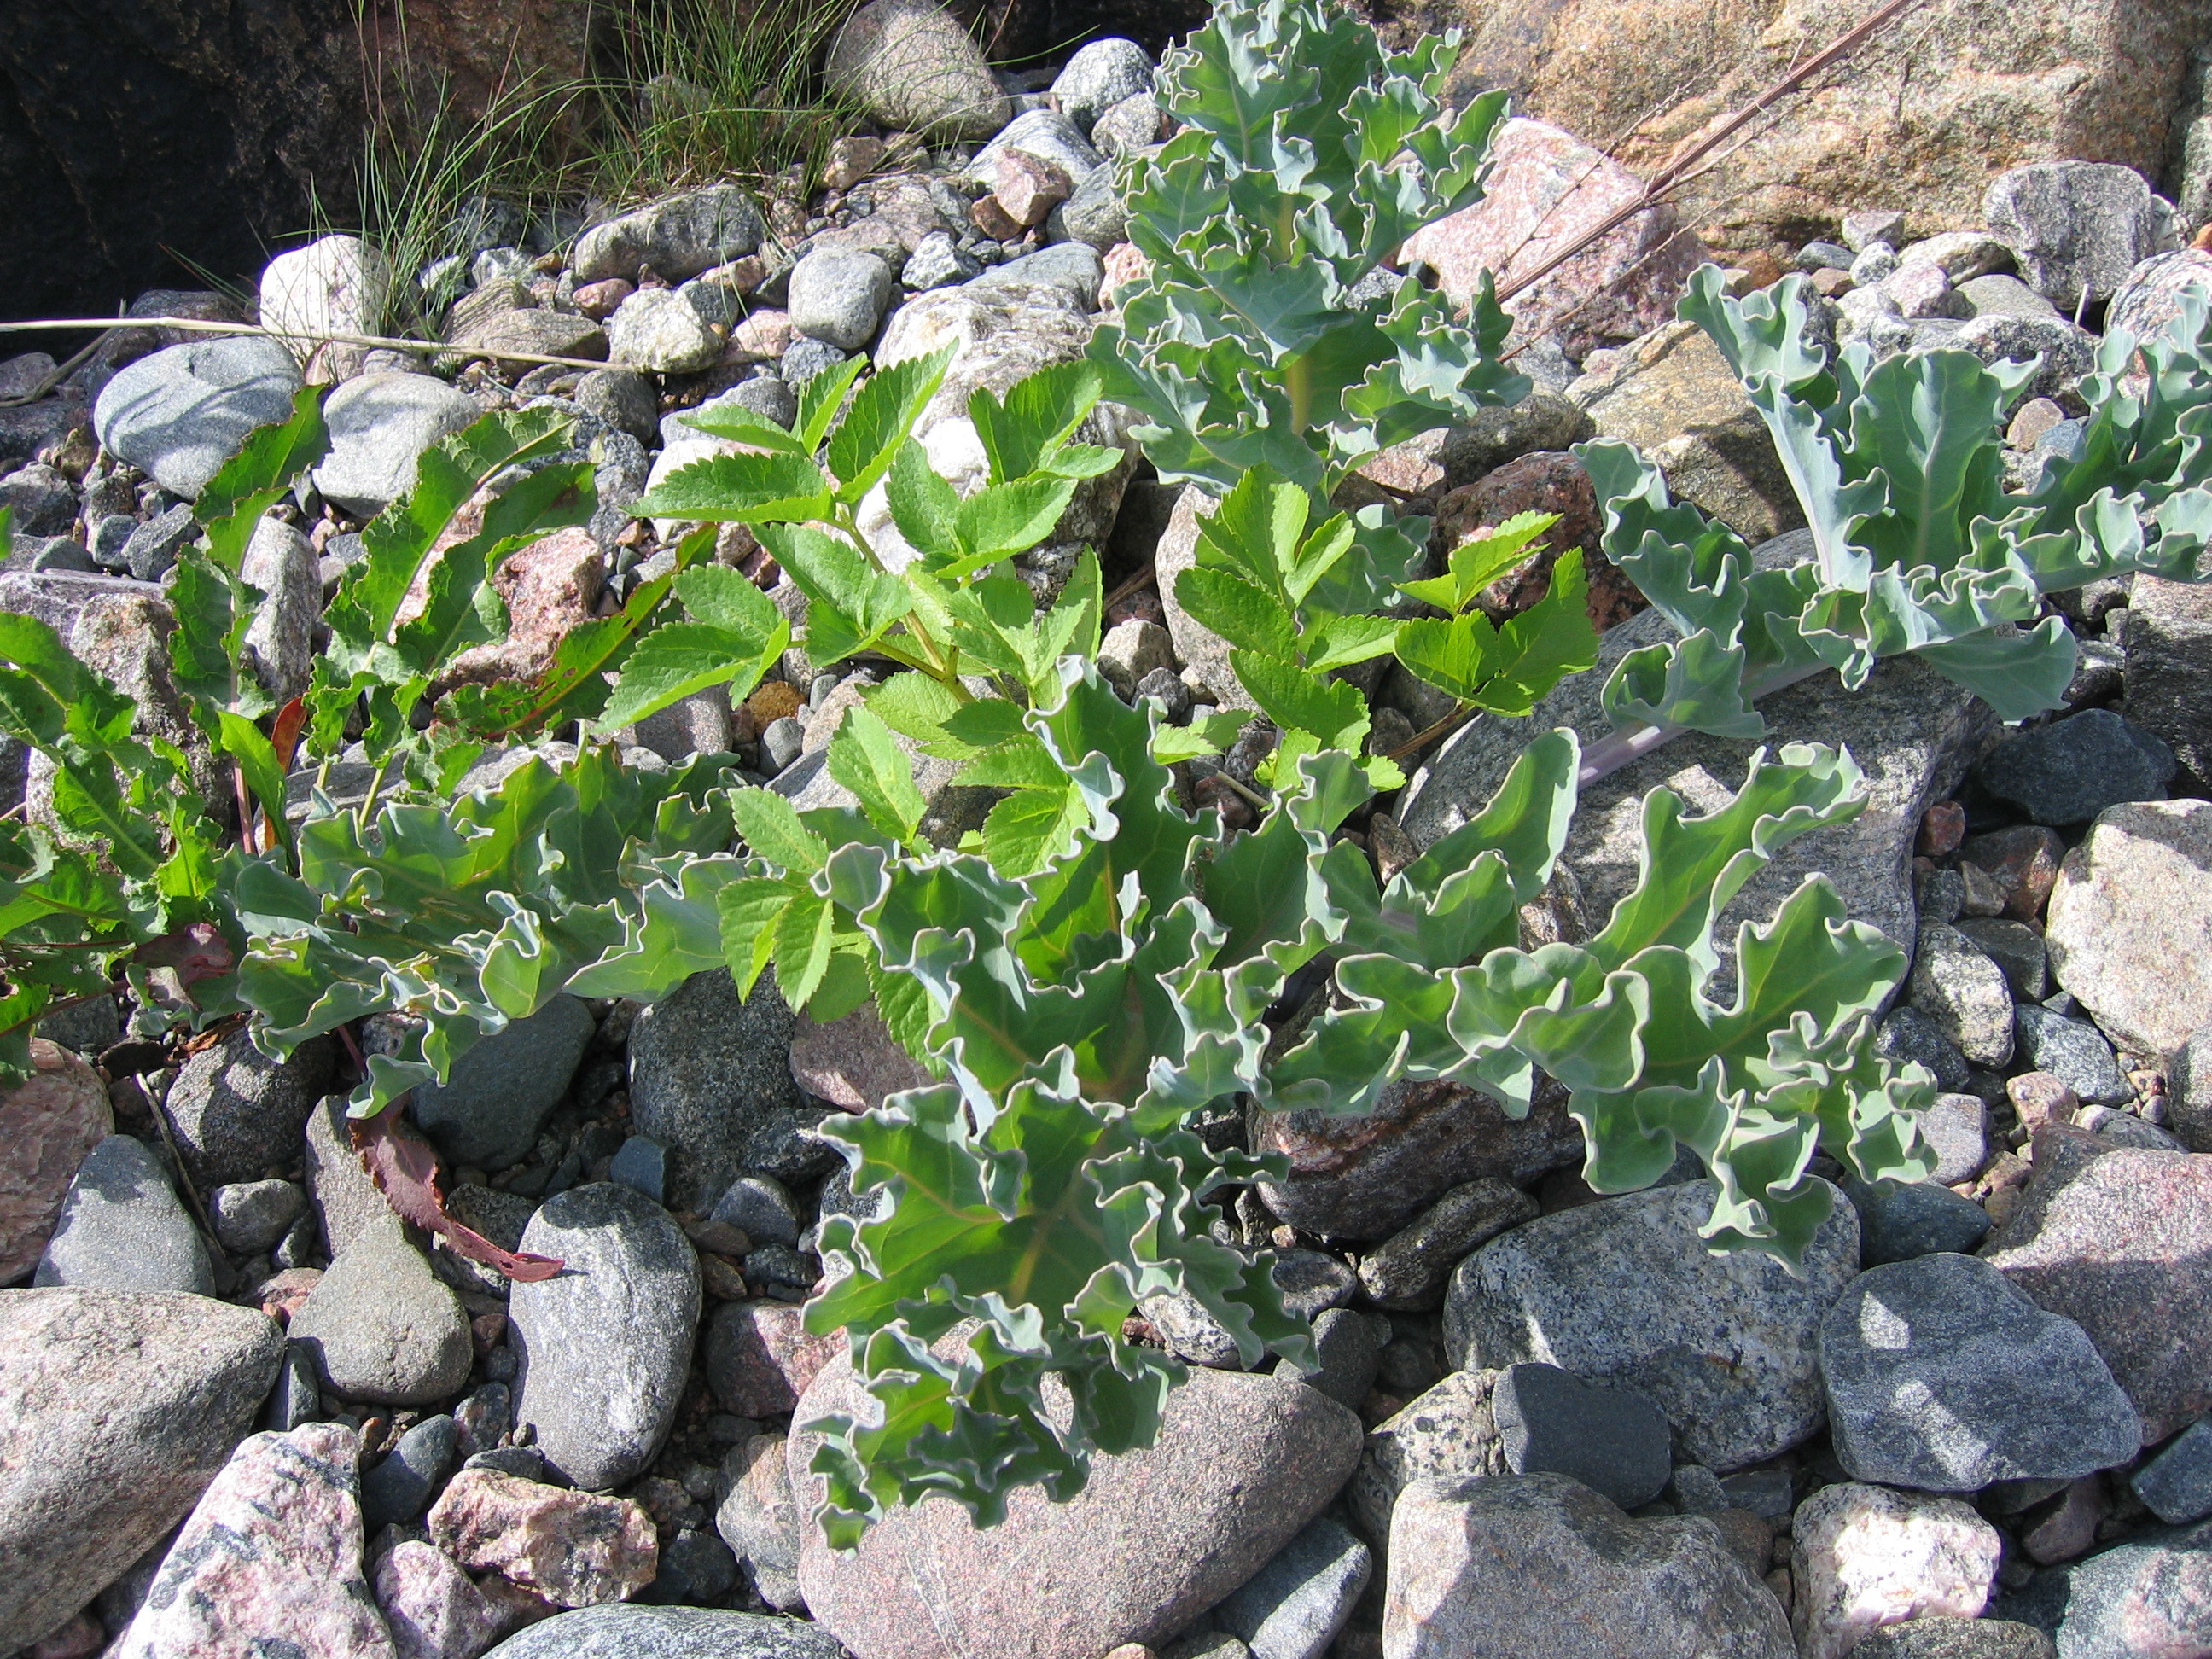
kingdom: Plantae
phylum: Tracheophyta
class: Magnoliopsida
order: Brassicales
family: Brassicaceae
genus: Crambe
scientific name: Crambe maritima
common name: Sea-kale
